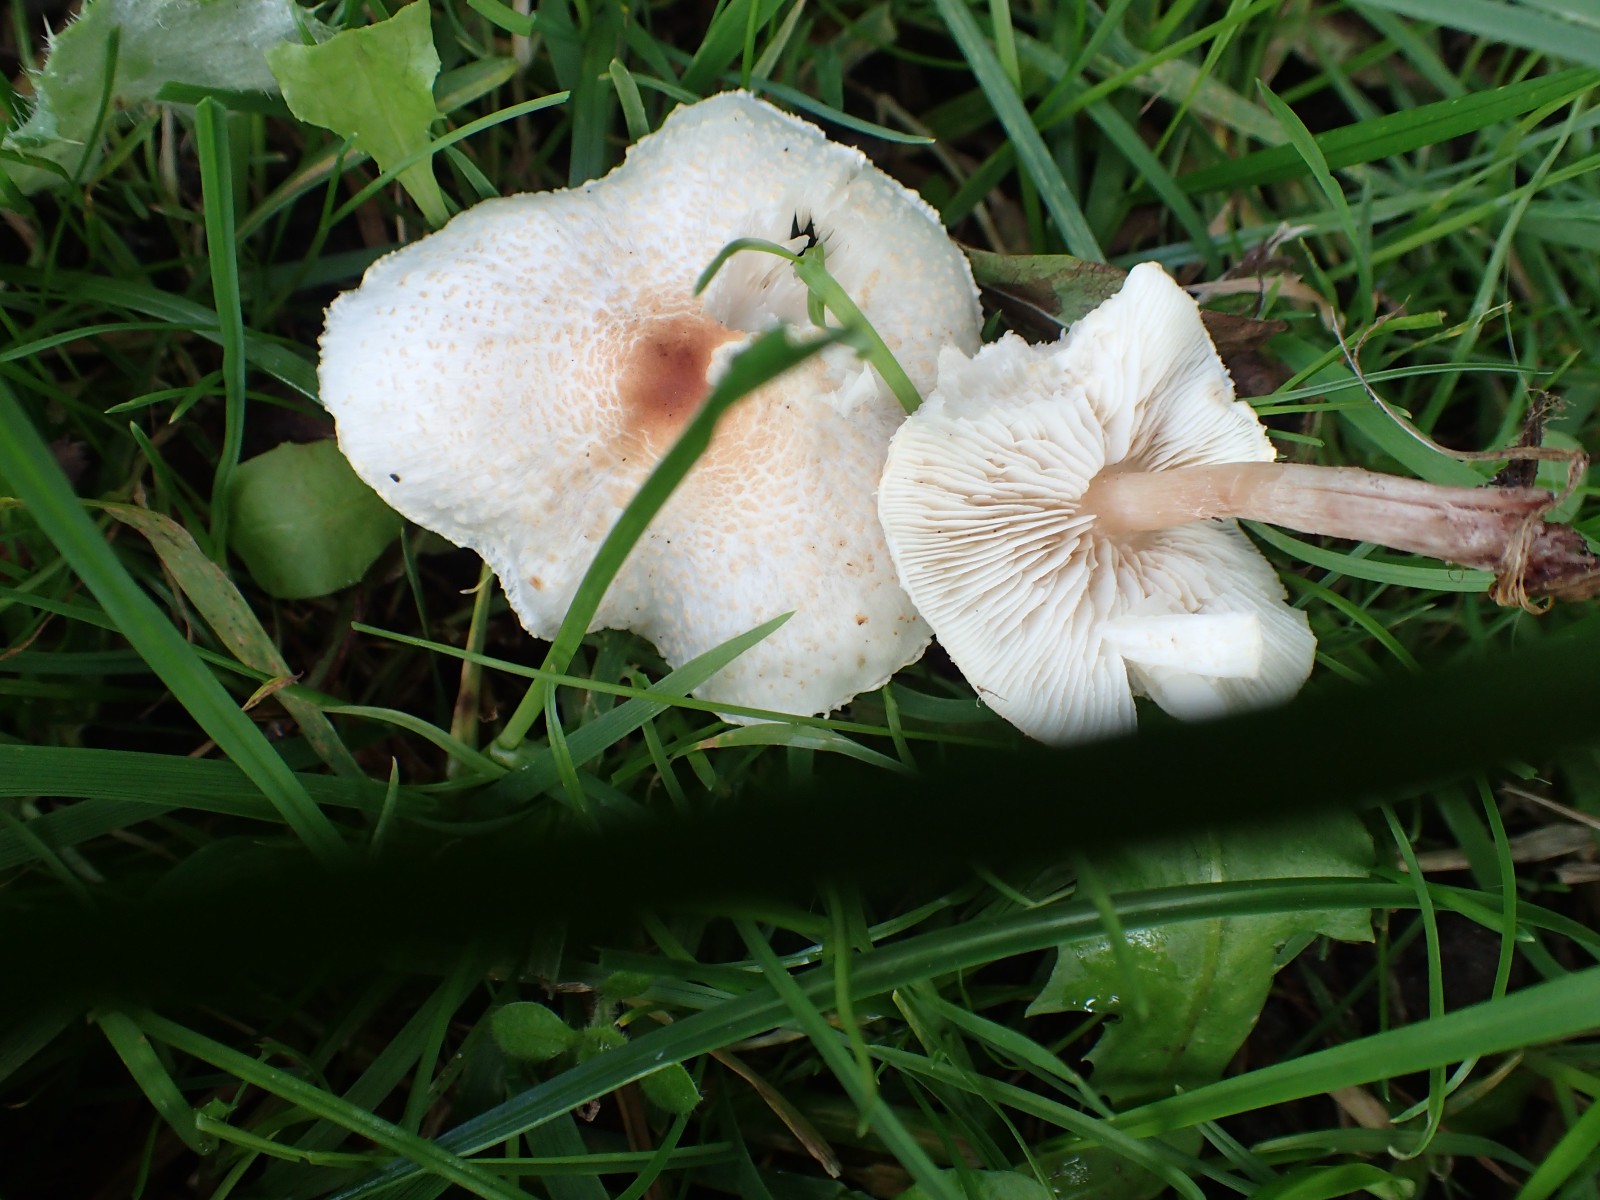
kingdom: Fungi
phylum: Basidiomycota
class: Agaricomycetes
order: Agaricales
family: Agaricaceae
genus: Lepiota
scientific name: Lepiota cristata
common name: stinkende parasolhat
